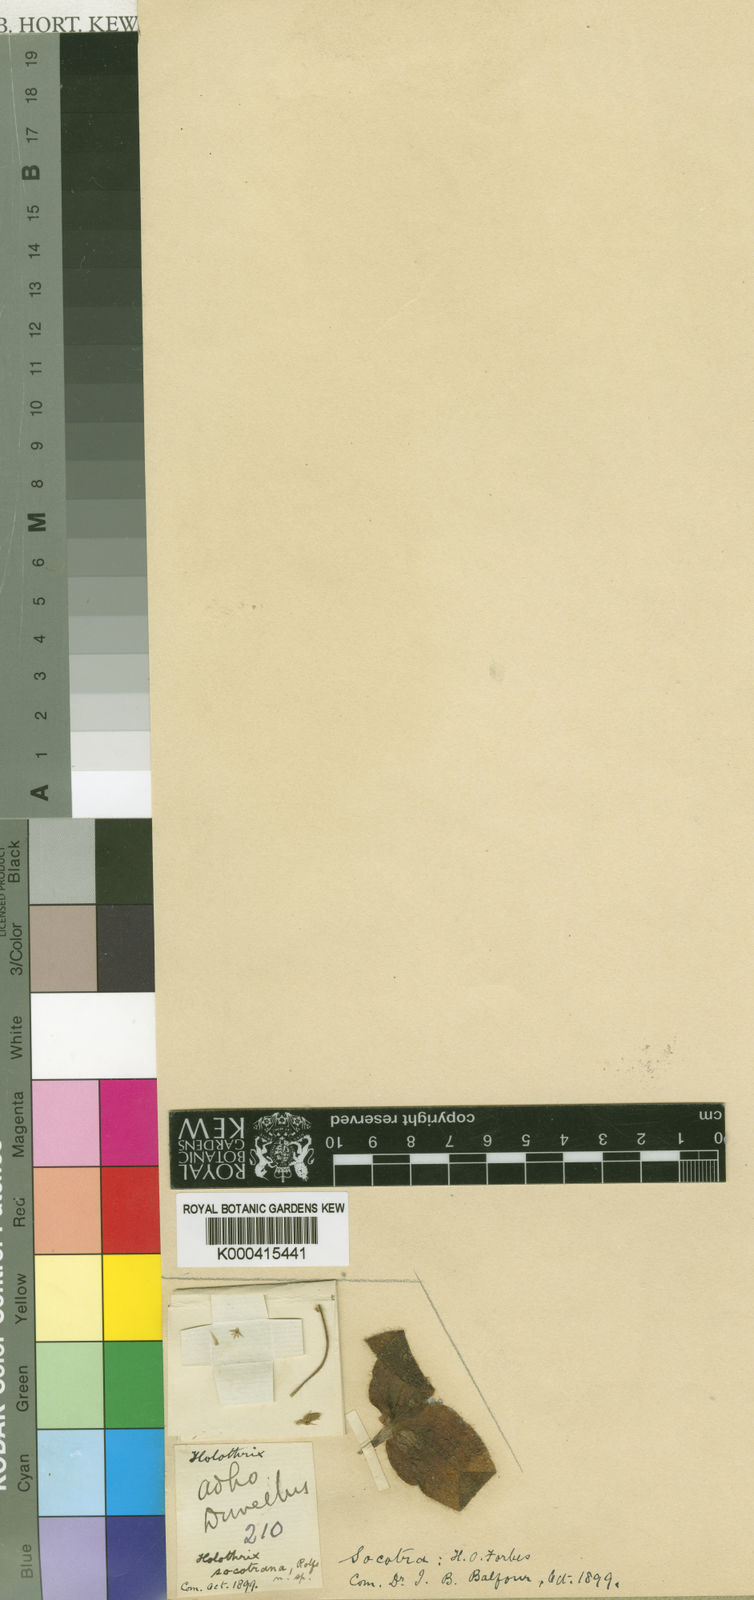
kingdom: Plantae
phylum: Tracheophyta
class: Liliopsida
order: Asparagales
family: Orchidaceae
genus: Holothrix
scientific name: Holothrix socotrana
